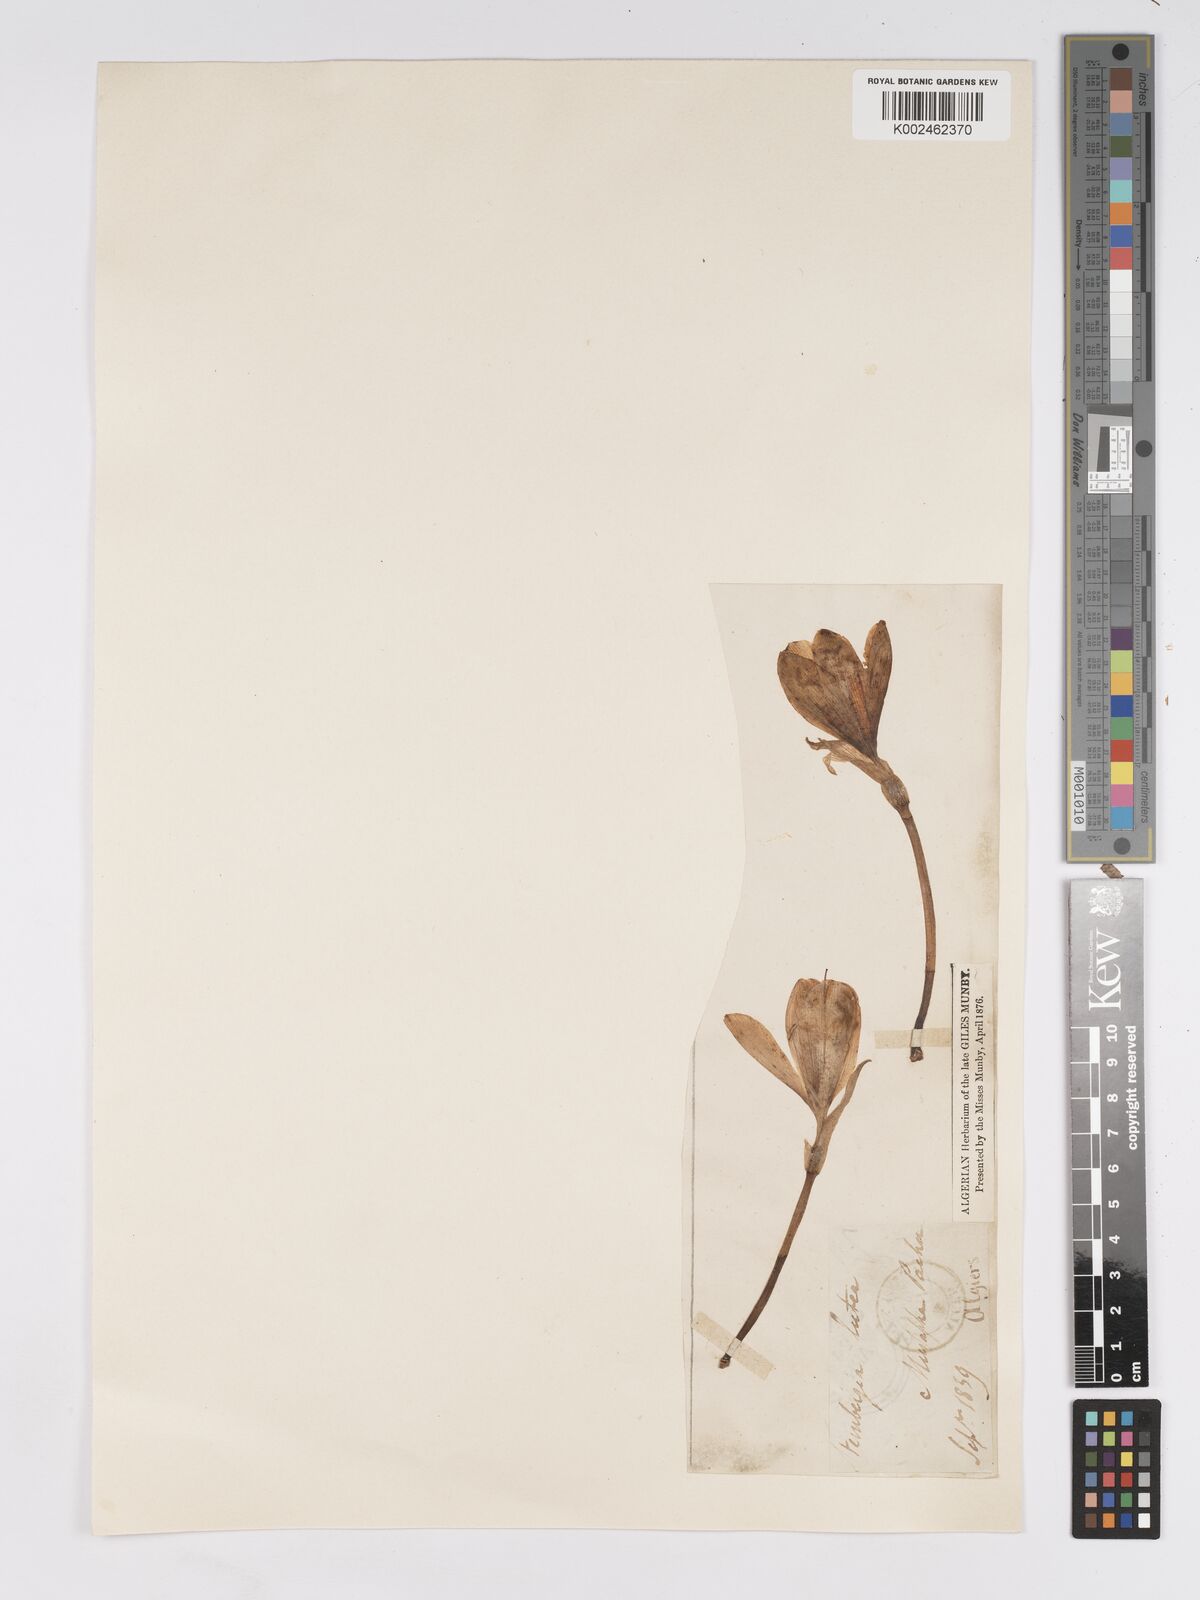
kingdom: Plantae
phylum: Tracheophyta
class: Liliopsida
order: Asparagales
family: Amaryllidaceae
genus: Sternbergia
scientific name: Sternbergia lutea
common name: Winter daffodil
